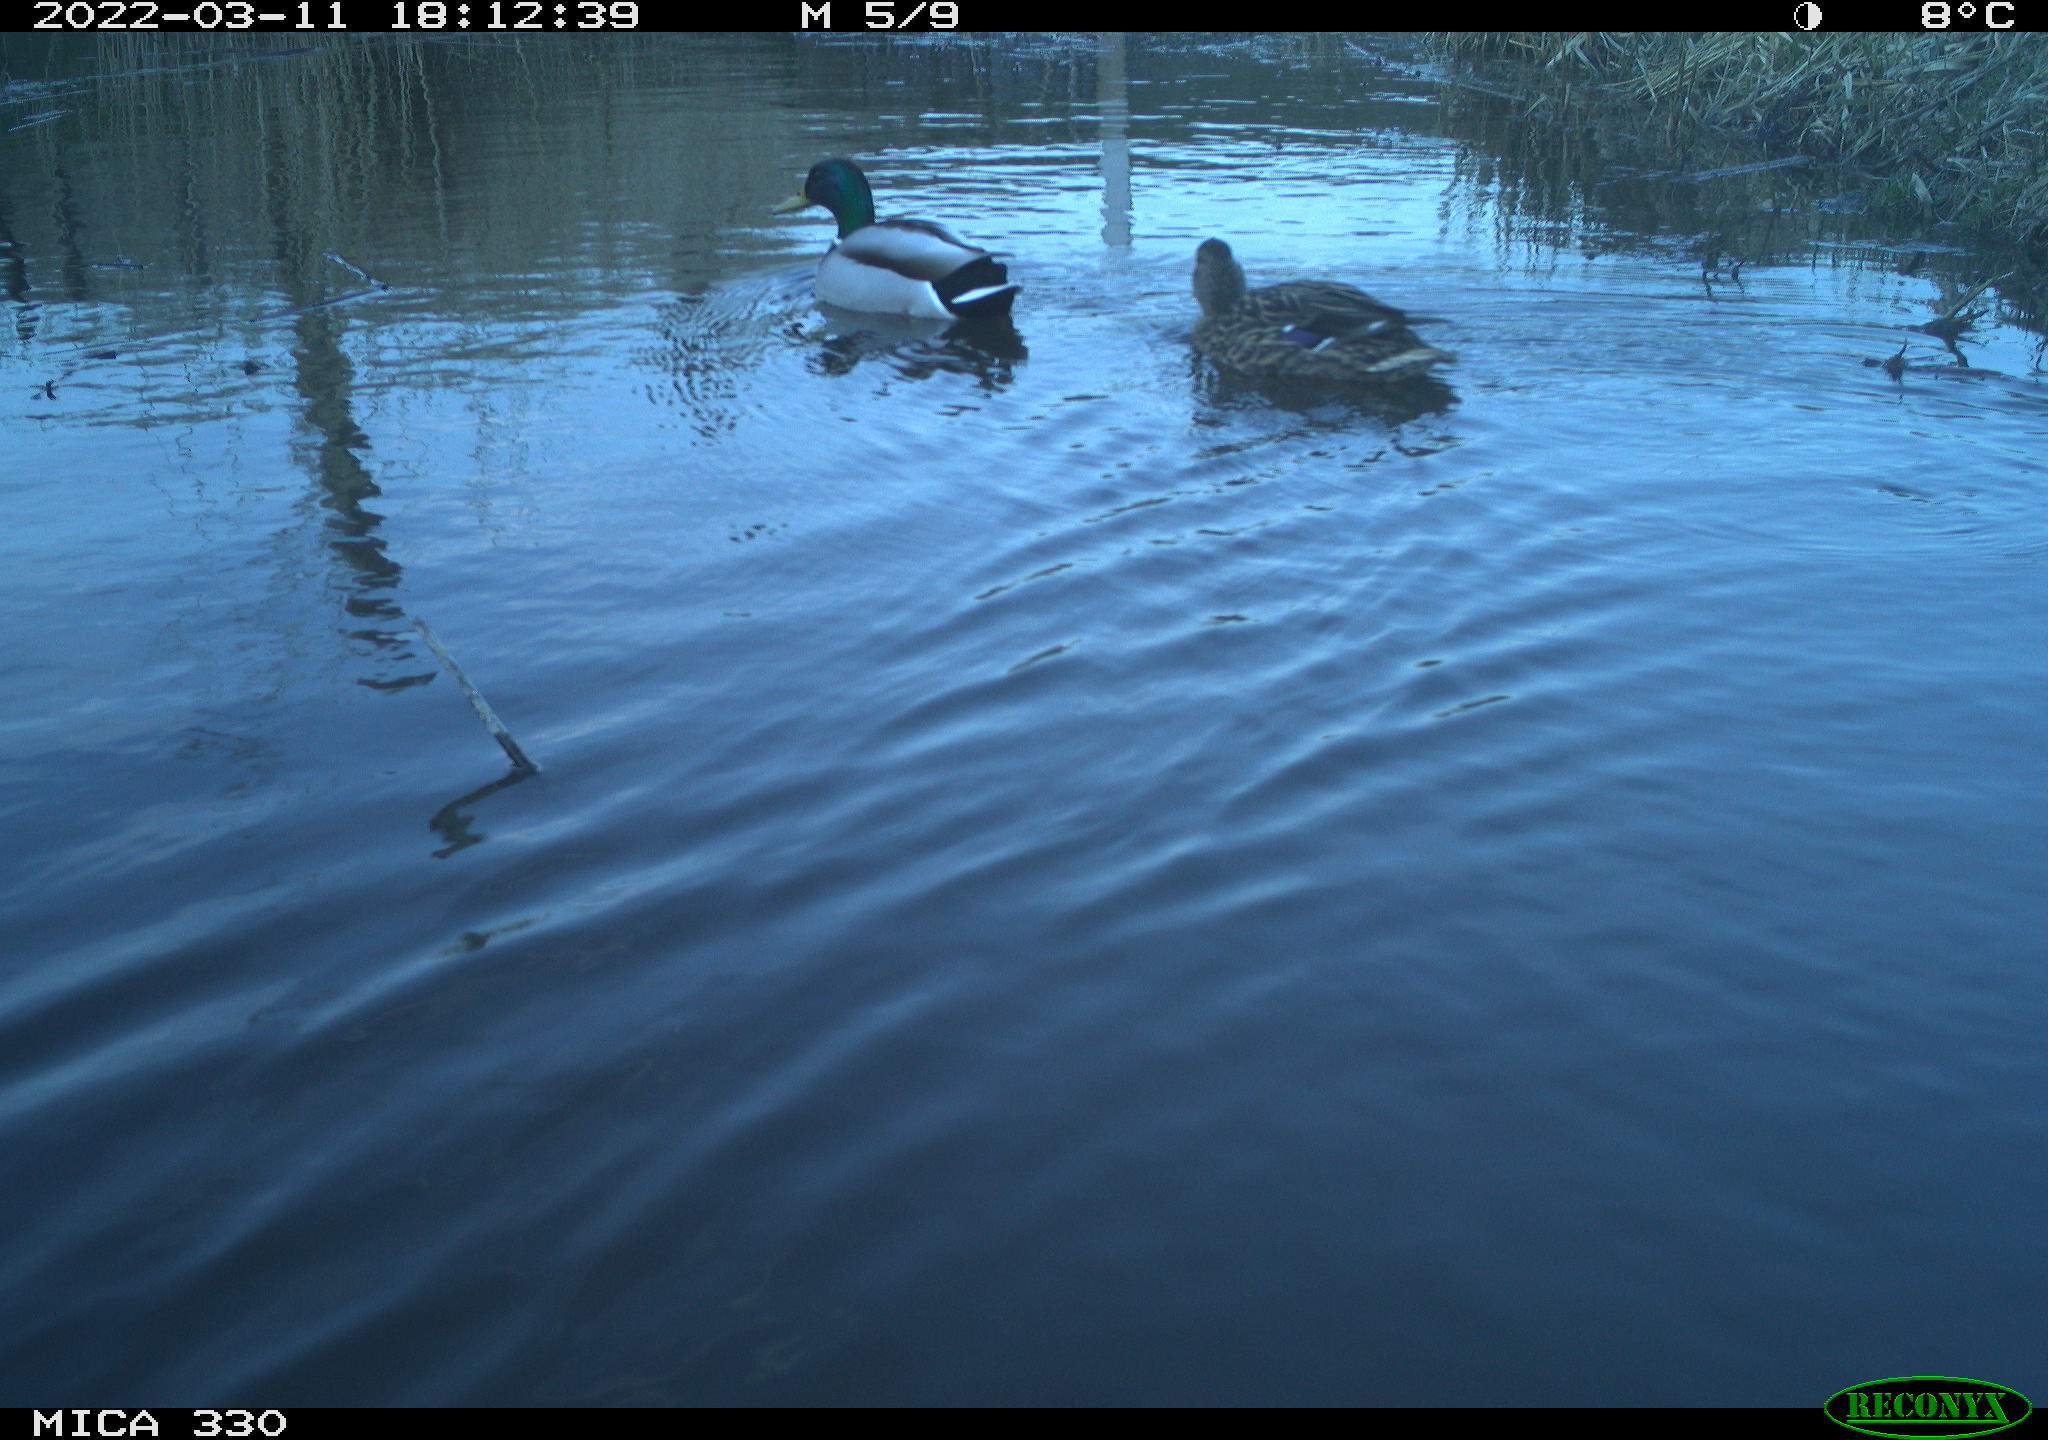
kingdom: Animalia
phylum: Chordata
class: Aves
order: Anseriformes
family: Anatidae
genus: Anas
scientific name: Anas platyrhynchos
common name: Mallard
